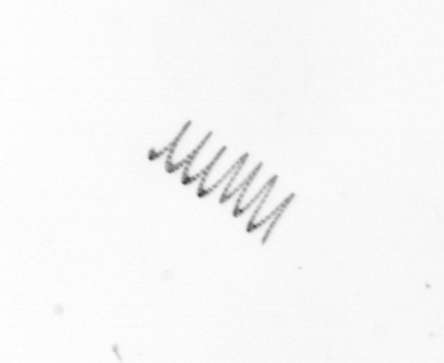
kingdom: Chromista
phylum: Ochrophyta
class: Bacillariophyceae
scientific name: Bacillariophyceae
